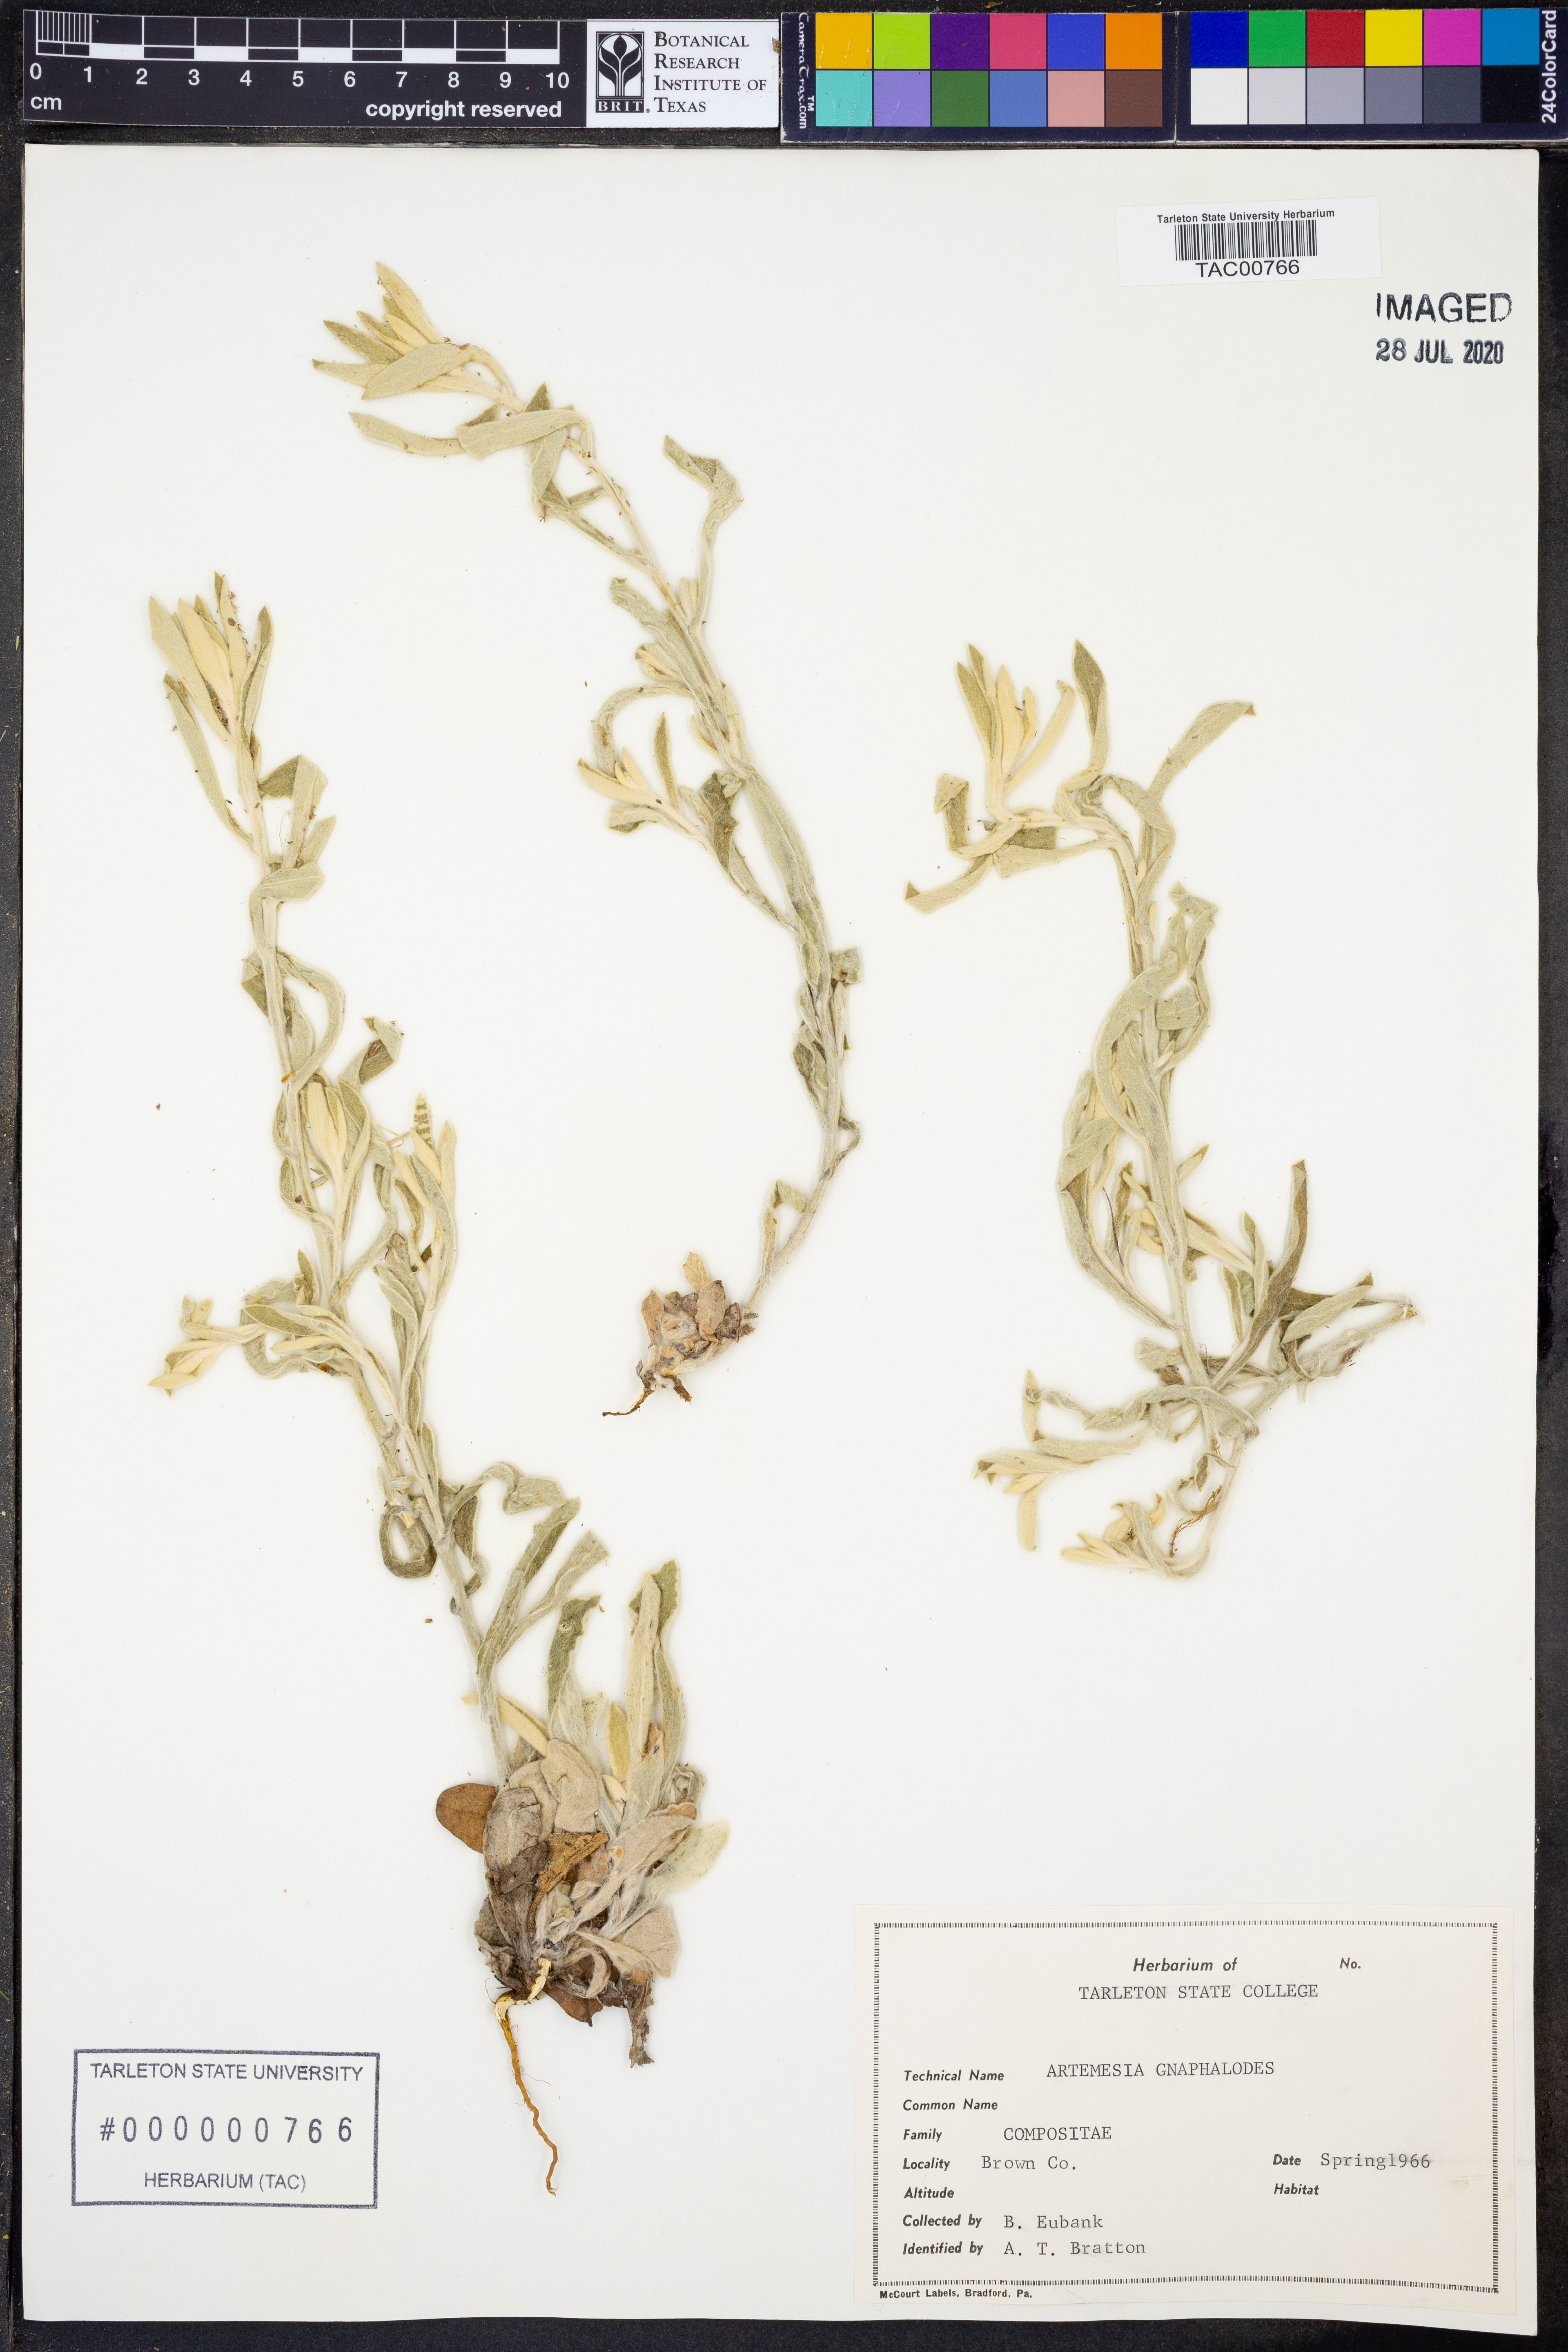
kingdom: Plantae
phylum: Tracheophyta
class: Magnoliopsida
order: Asterales
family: Asteraceae
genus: Artemisia
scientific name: Artemisia ludoviciana
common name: Western mugwort
